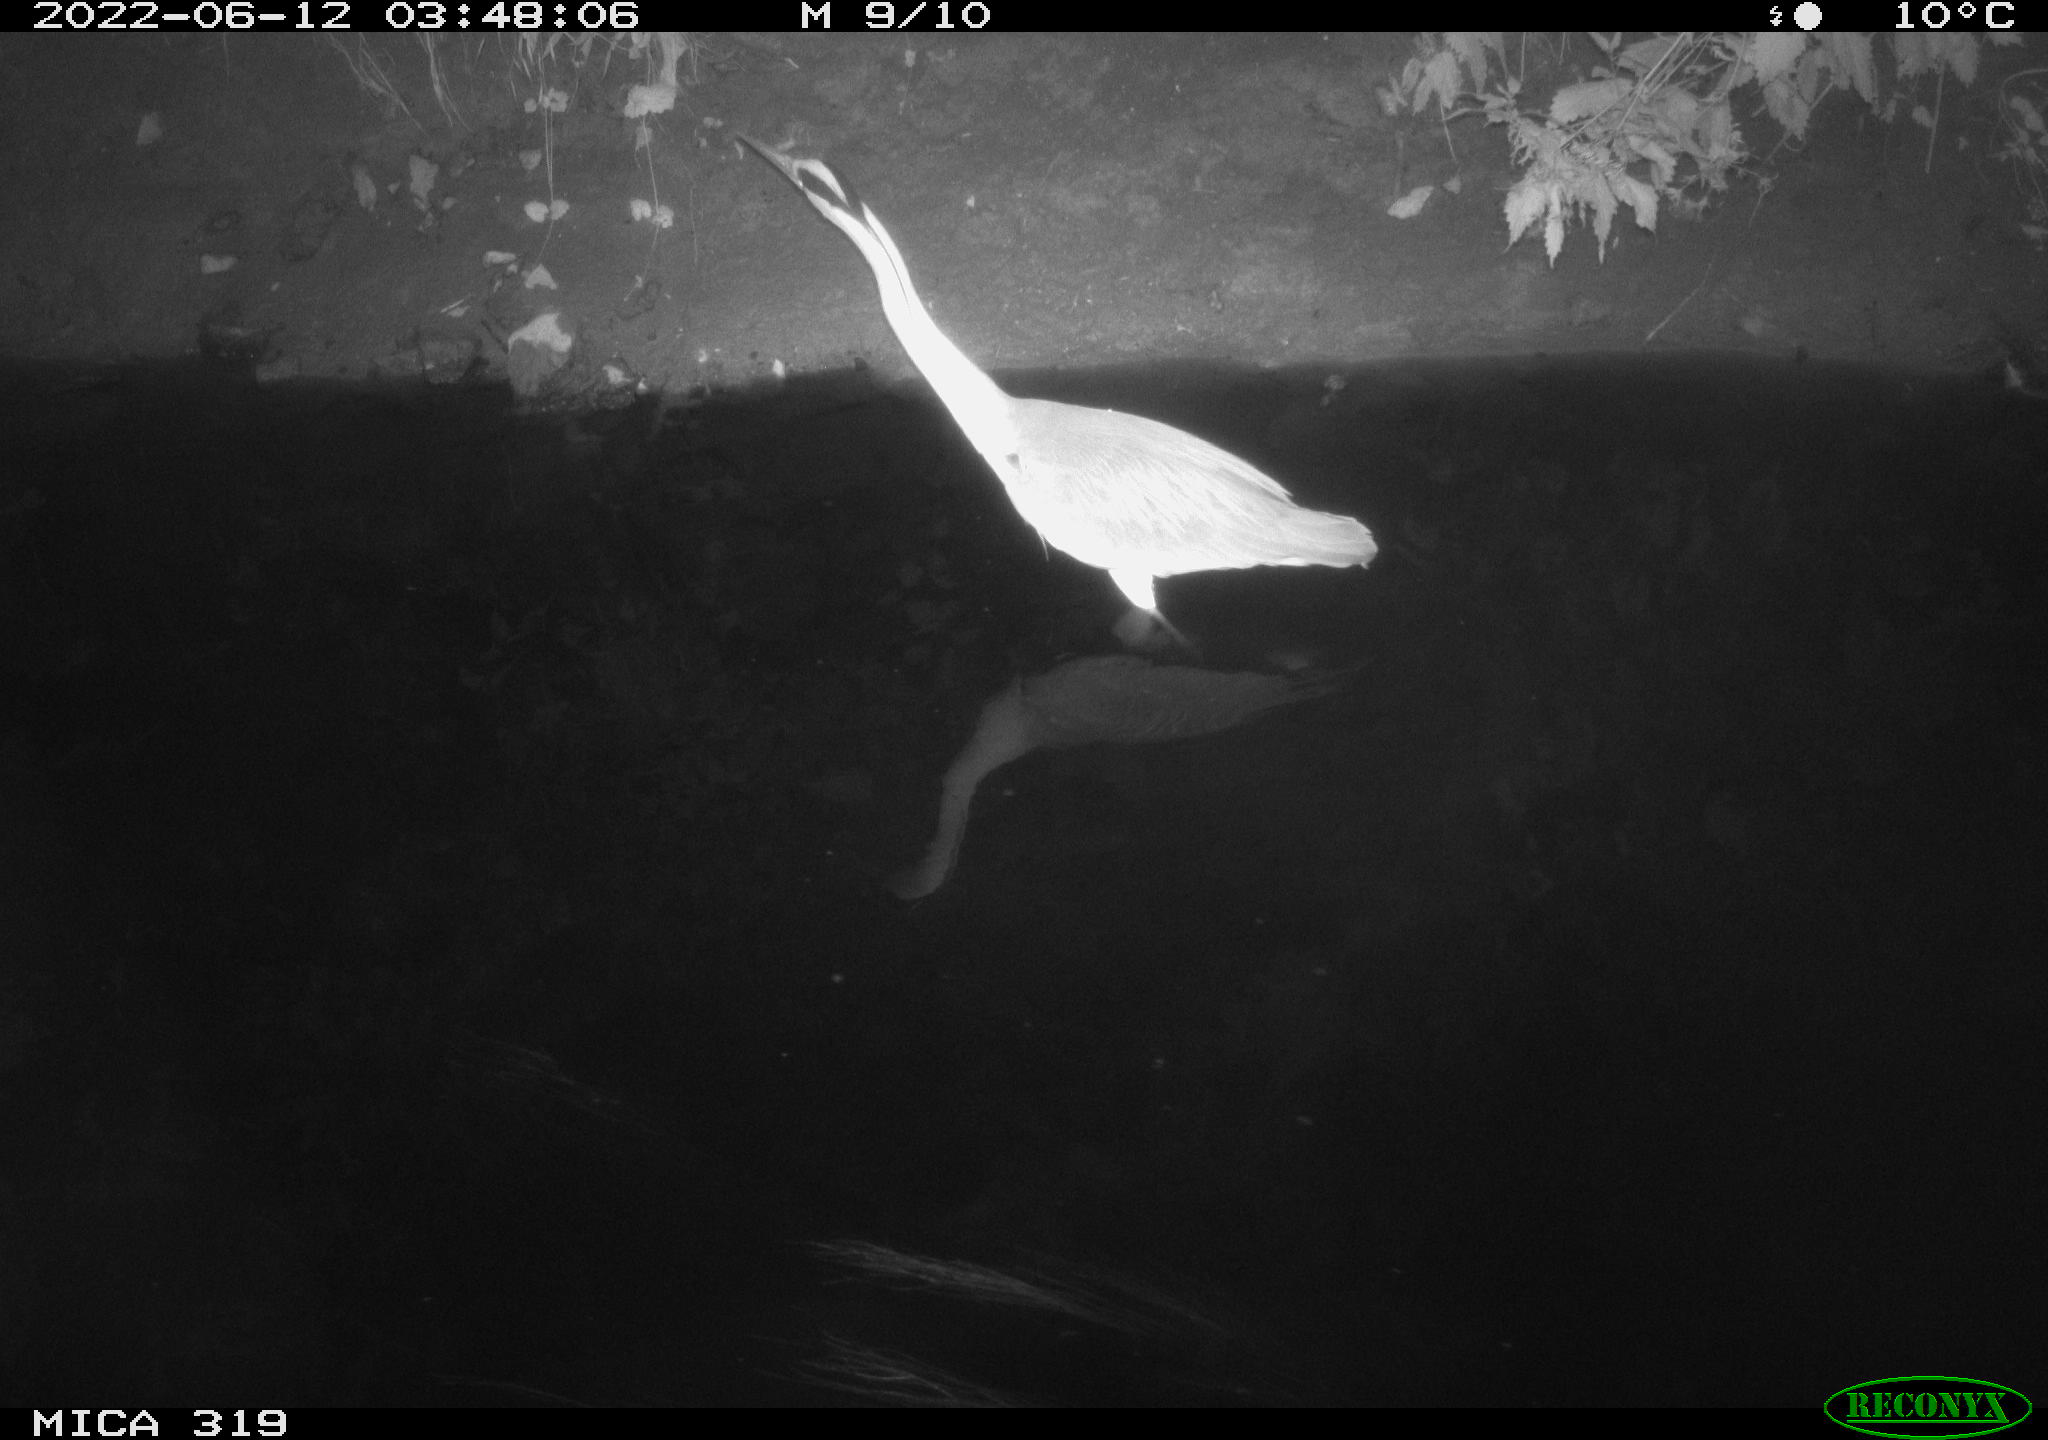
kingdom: Animalia
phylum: Chordata
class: Aves
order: Pelecaniformes
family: Ardeidae
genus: Ardea
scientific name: Ardea
